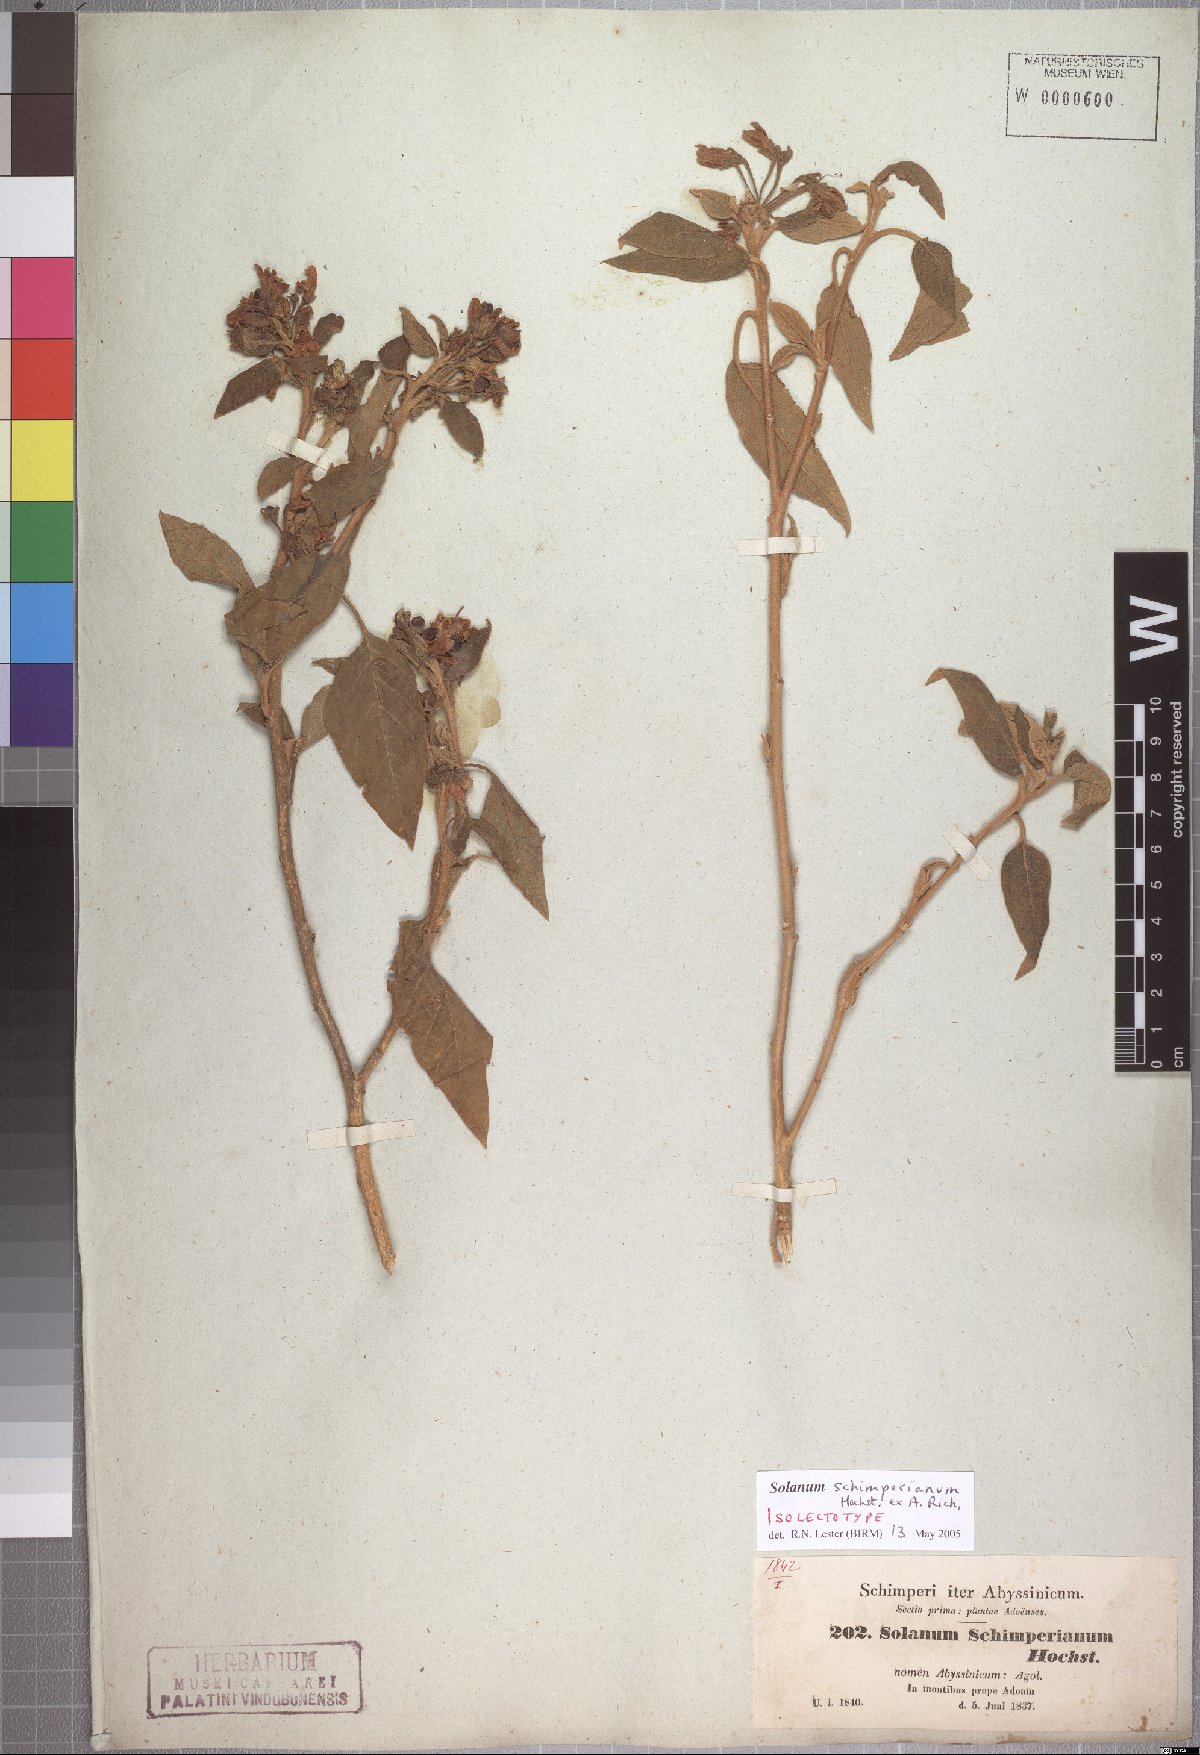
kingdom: Plantae
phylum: Tracheophyta
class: Magnoliopsida
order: Solanales
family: Solanaceae
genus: Solanum
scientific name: Solanum schimperianum
